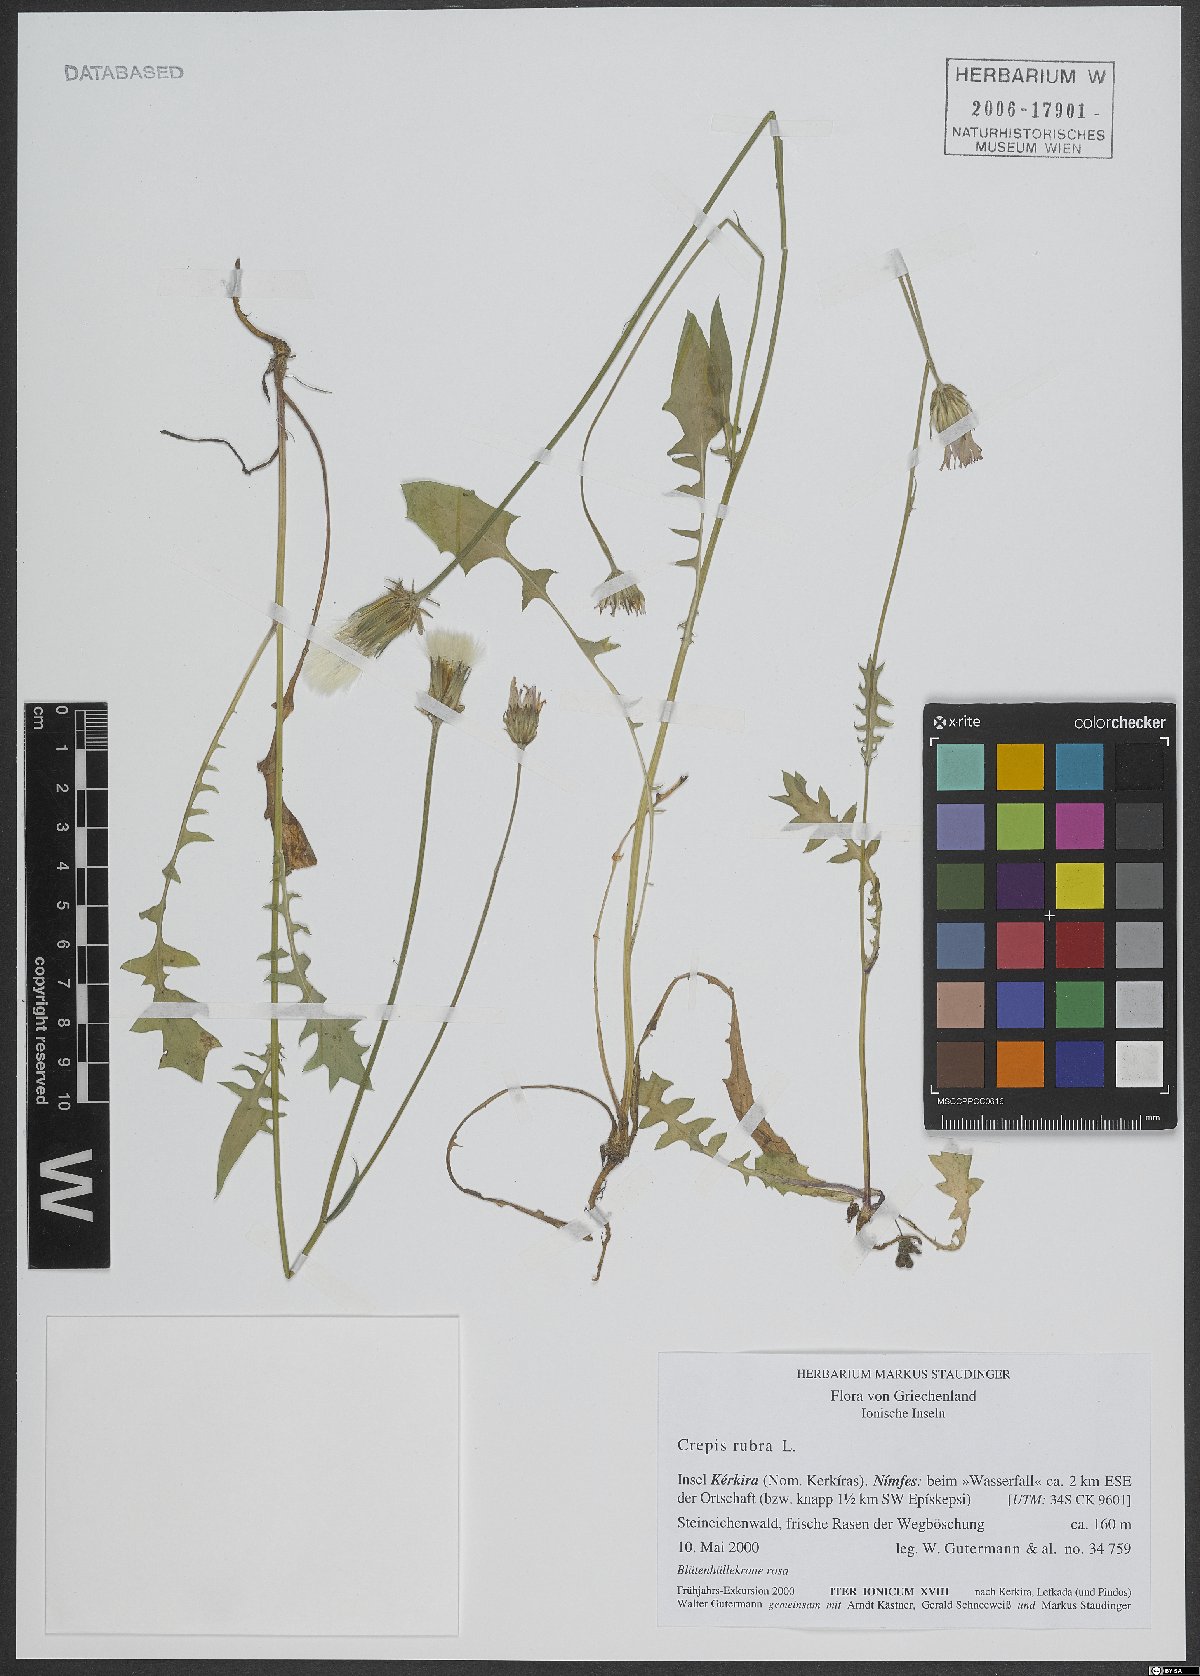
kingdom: Plantae
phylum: Tracheophyta
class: Magnoliopsida
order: Asterales
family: Asteraceae
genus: Crepis
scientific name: Crepis rubra
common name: Pink hawk's-beard
